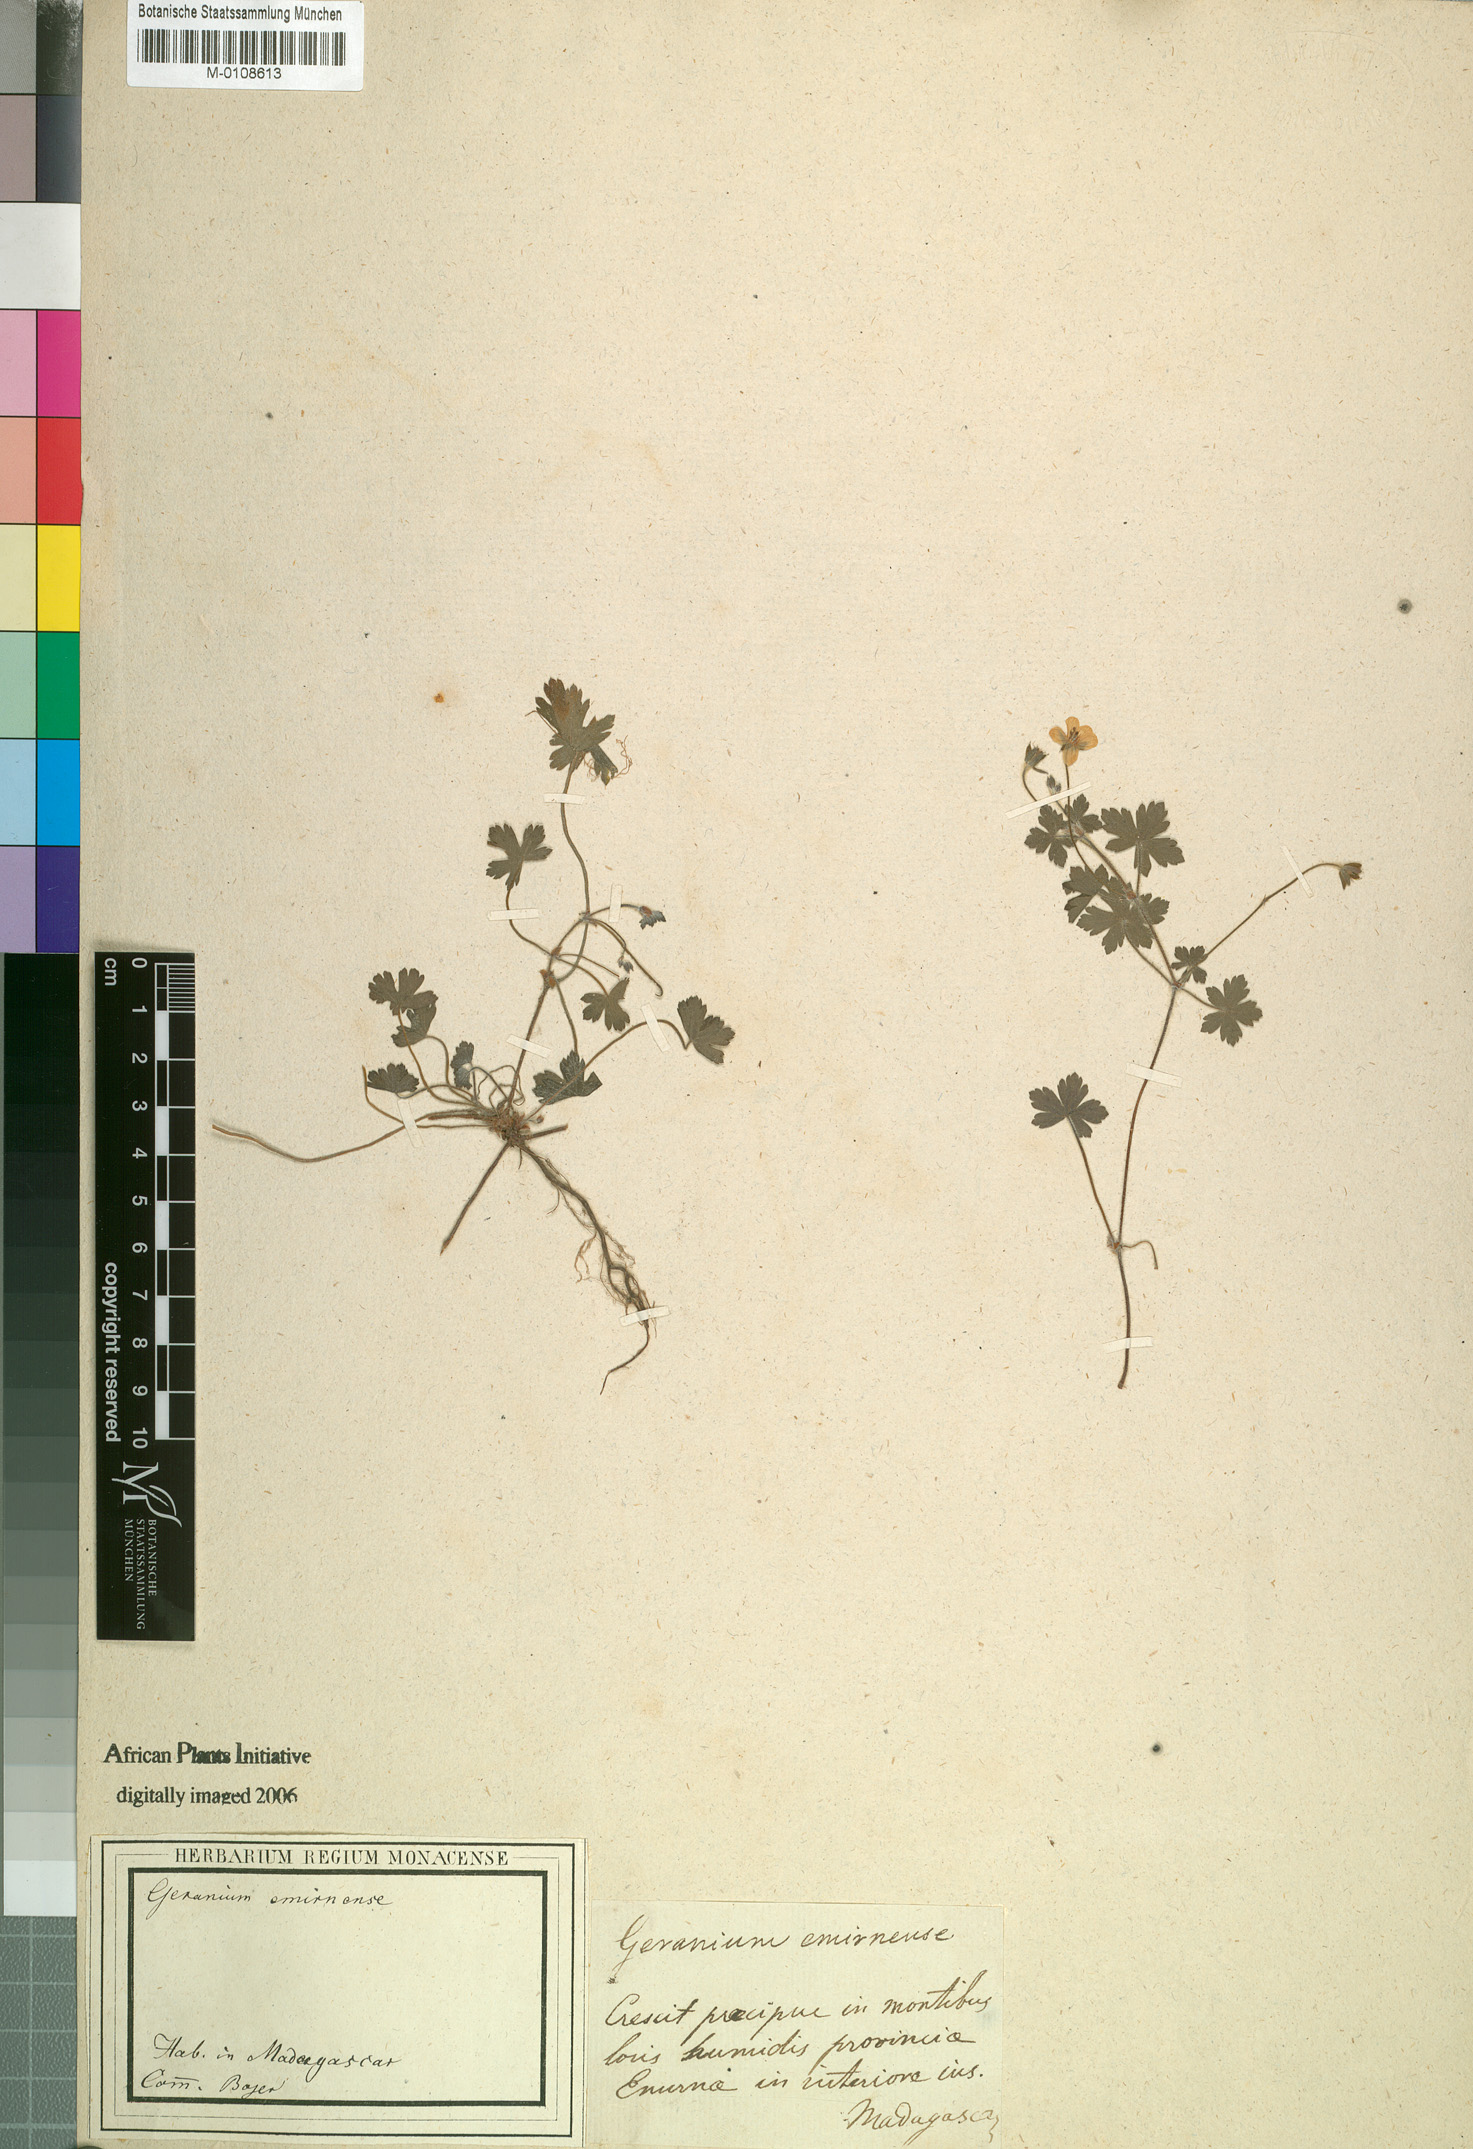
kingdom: Plantae
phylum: Tracheophyta
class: Magnoliopsida
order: Geraniales
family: Geraniaceae
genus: Geranium
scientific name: Geranium simense
